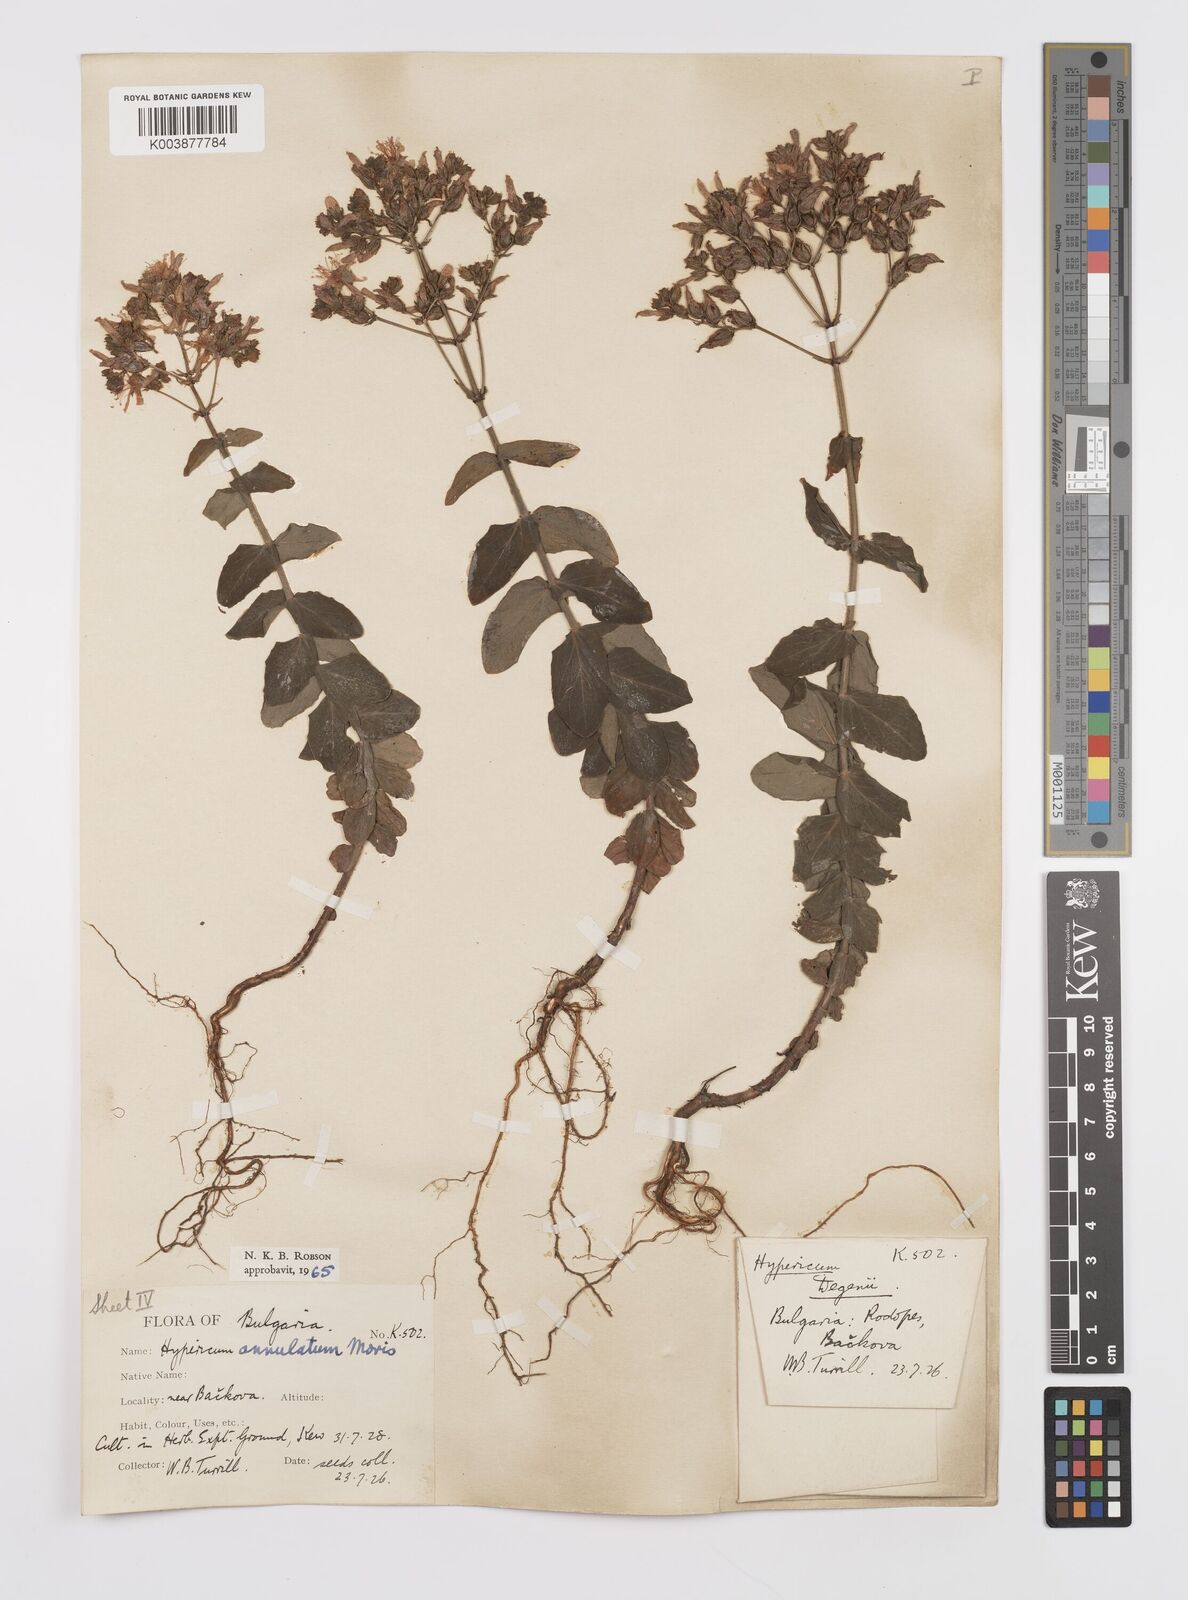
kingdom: Plantae
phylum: Tracheophyta
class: Magnoliopsida
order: Malpighiales
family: Hypericaceae
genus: Hypericum
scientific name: Hypericum annulatum
